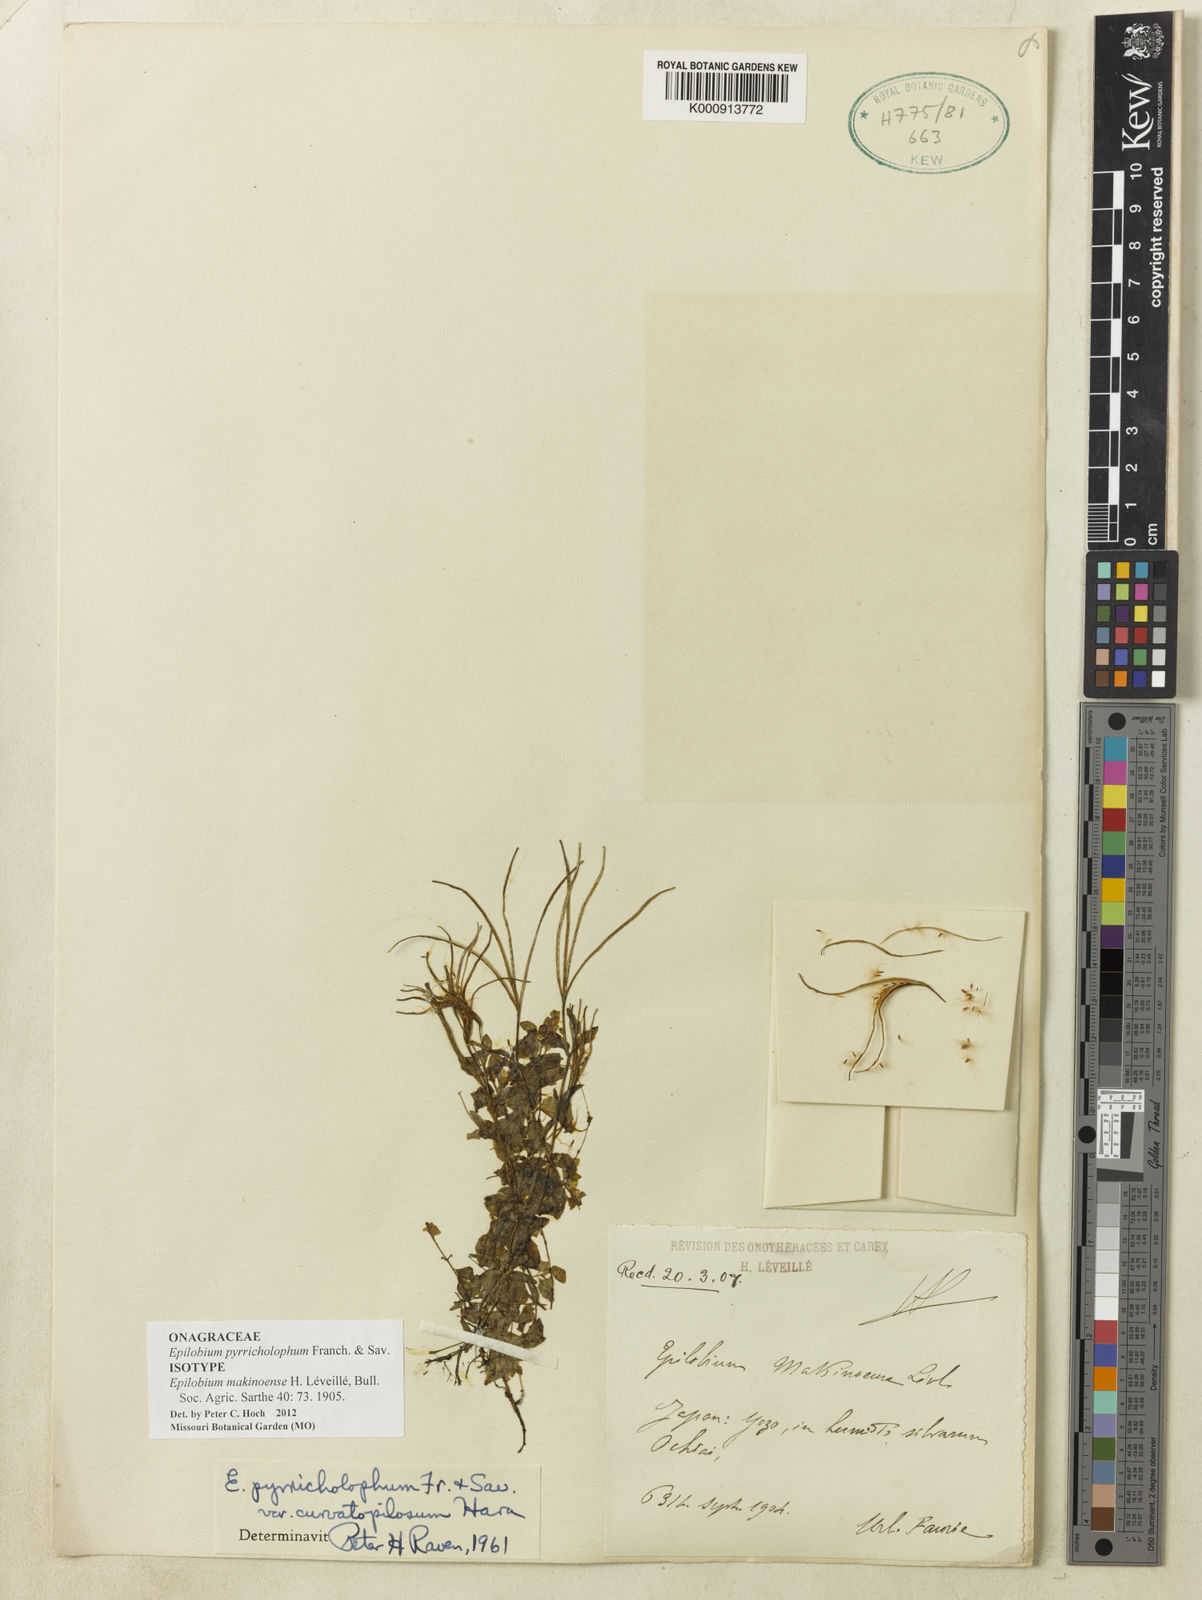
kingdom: Plantae
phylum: Tracheophyta
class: Magnoliopsida
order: Myrtales
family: Onagraceae
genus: Epilobium
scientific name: Epilobium pyrricholophum
